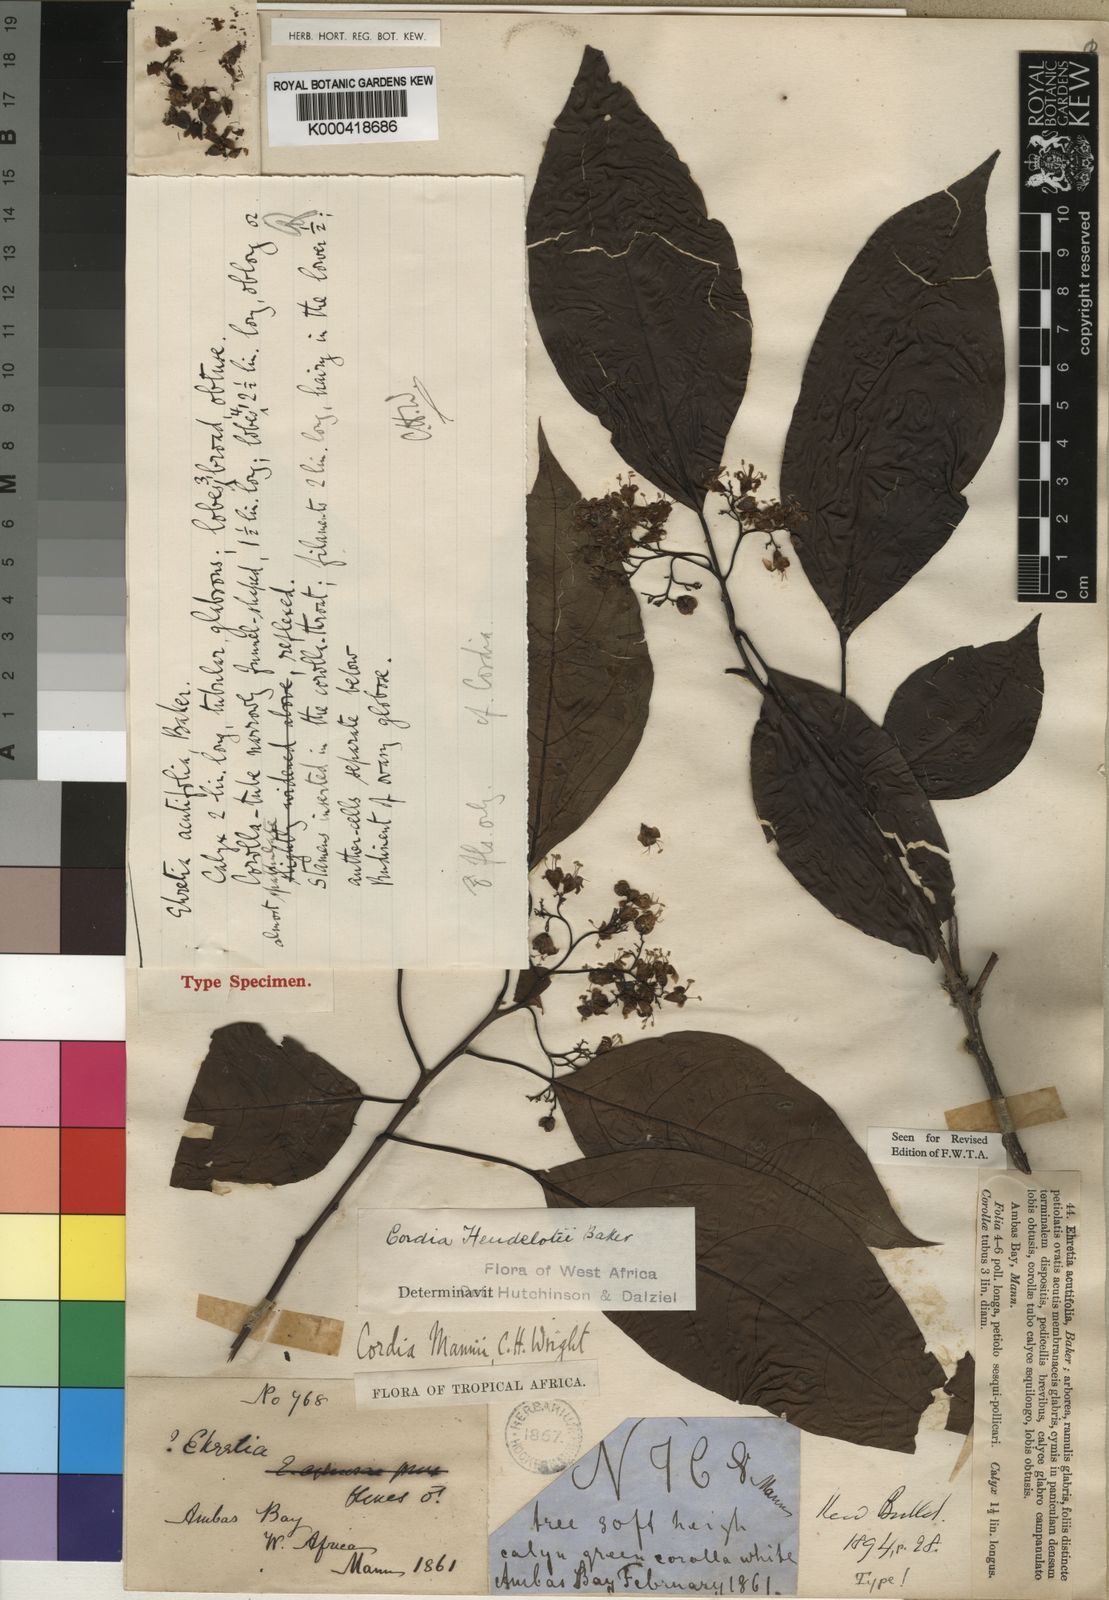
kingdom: Plantae
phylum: Tracheophyta
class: Magnoliopsida
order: Boraginales
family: Cordiaceae
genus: Cordia
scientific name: Cordia
